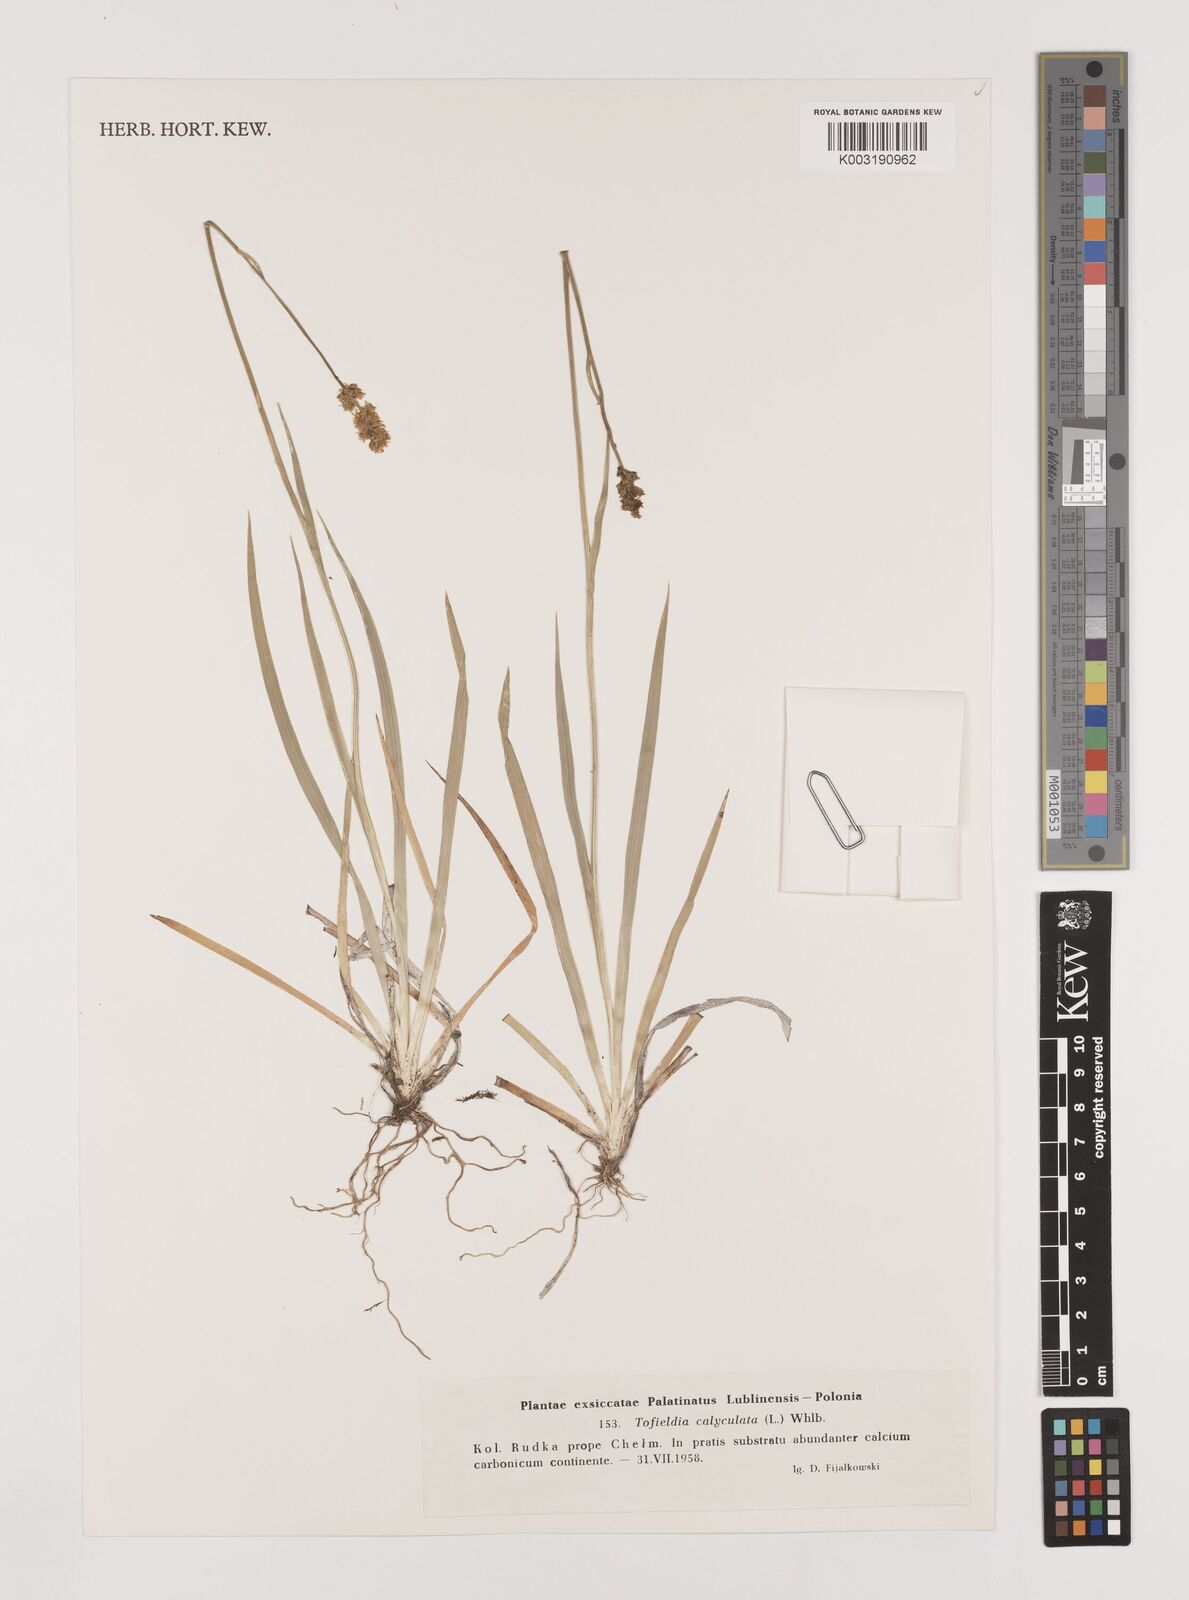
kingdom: Plantae
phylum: Tracheophyta
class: Liliopsida
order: Alismatales
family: Tofieldiaceae
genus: Tofieldia
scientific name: Tofieldia calyculata
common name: German-asphodel
